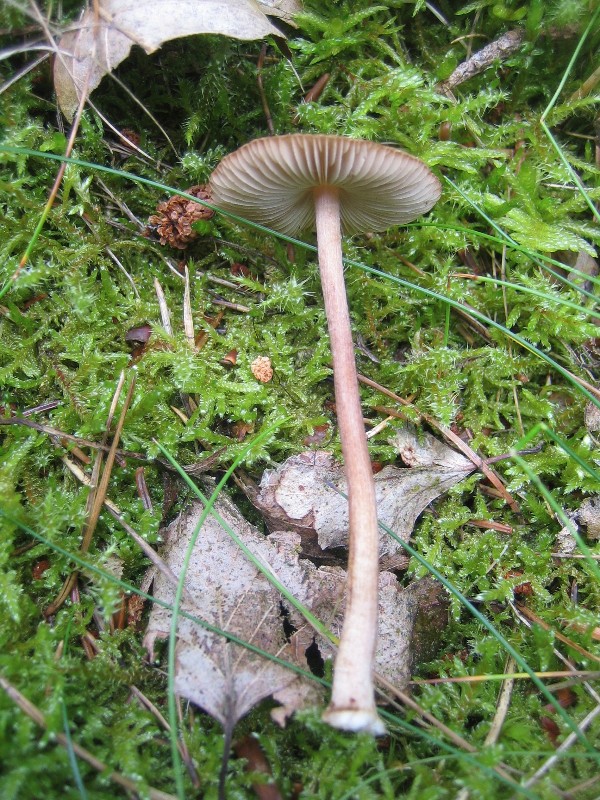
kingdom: Fungi
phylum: Basidiomycota
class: Agaricomycetes
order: Agaricales
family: Inocybaceae
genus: Inocybe
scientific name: Inocybe napipes
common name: roeknoldet trævlhat
